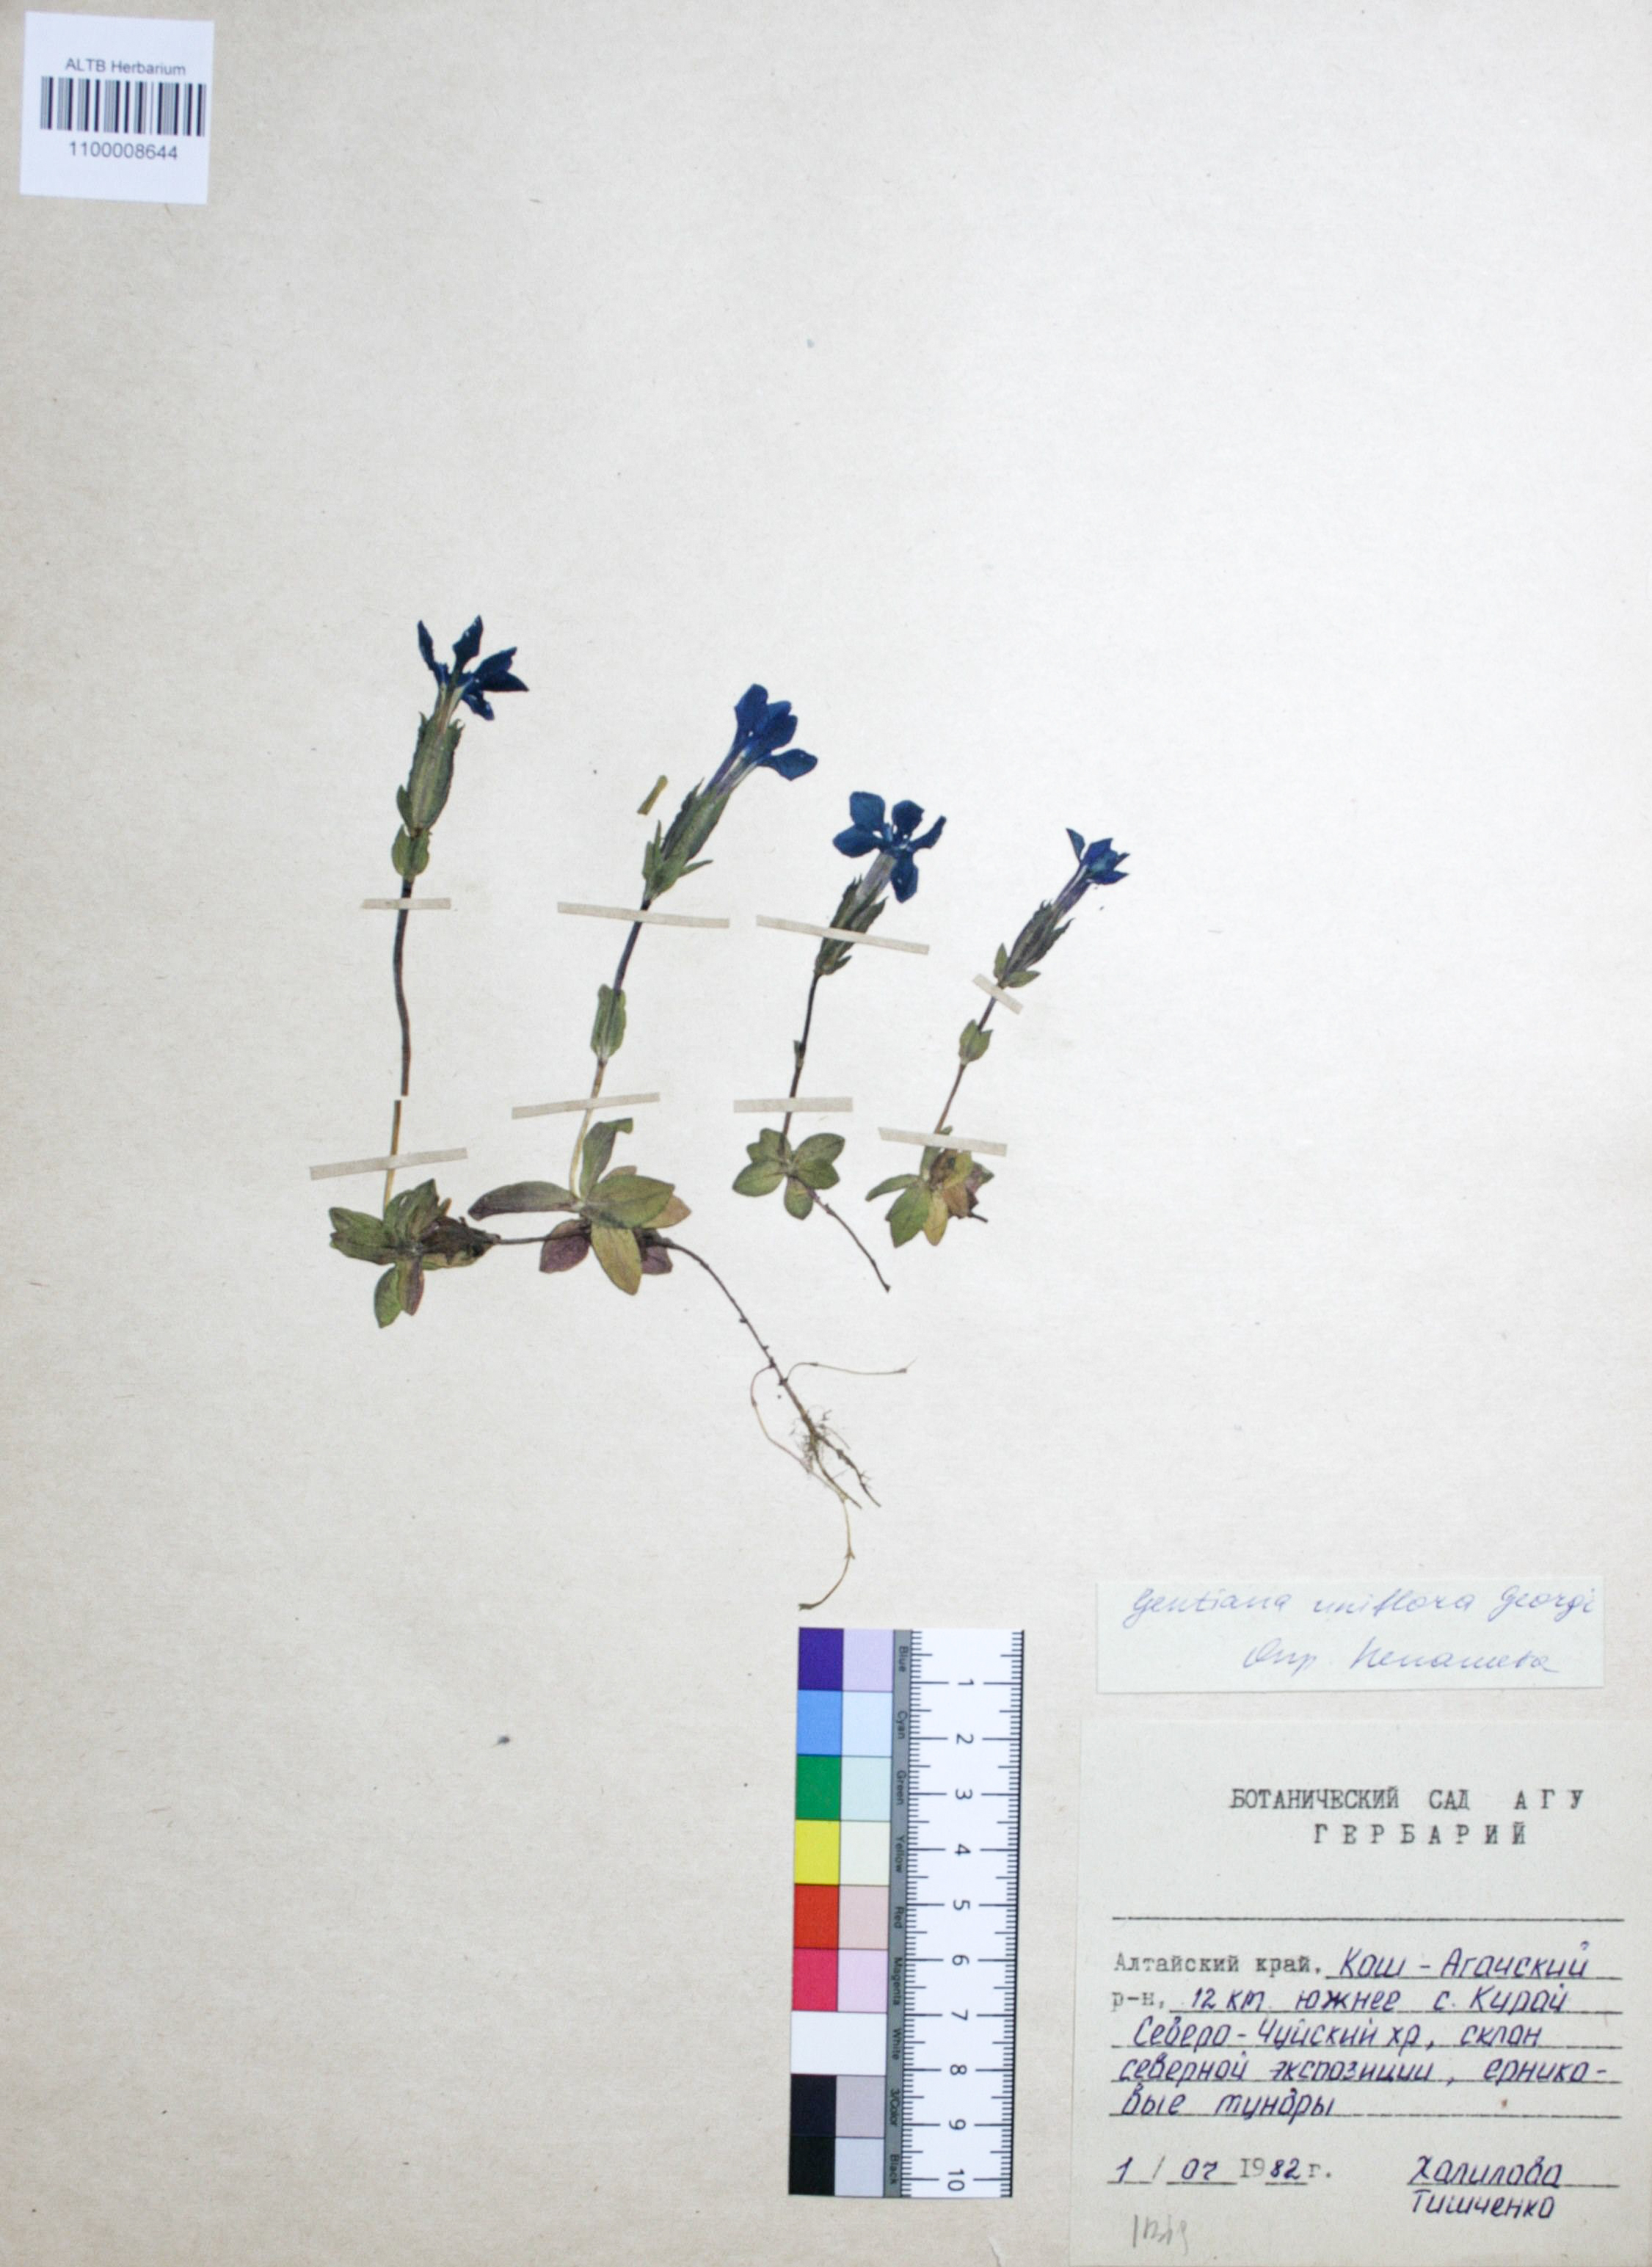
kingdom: Plantae
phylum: Tracheophyta
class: Magnoliopsida
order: Gentianales
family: Gentianaceae
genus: Gentiana
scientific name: Gentiana uniflora
